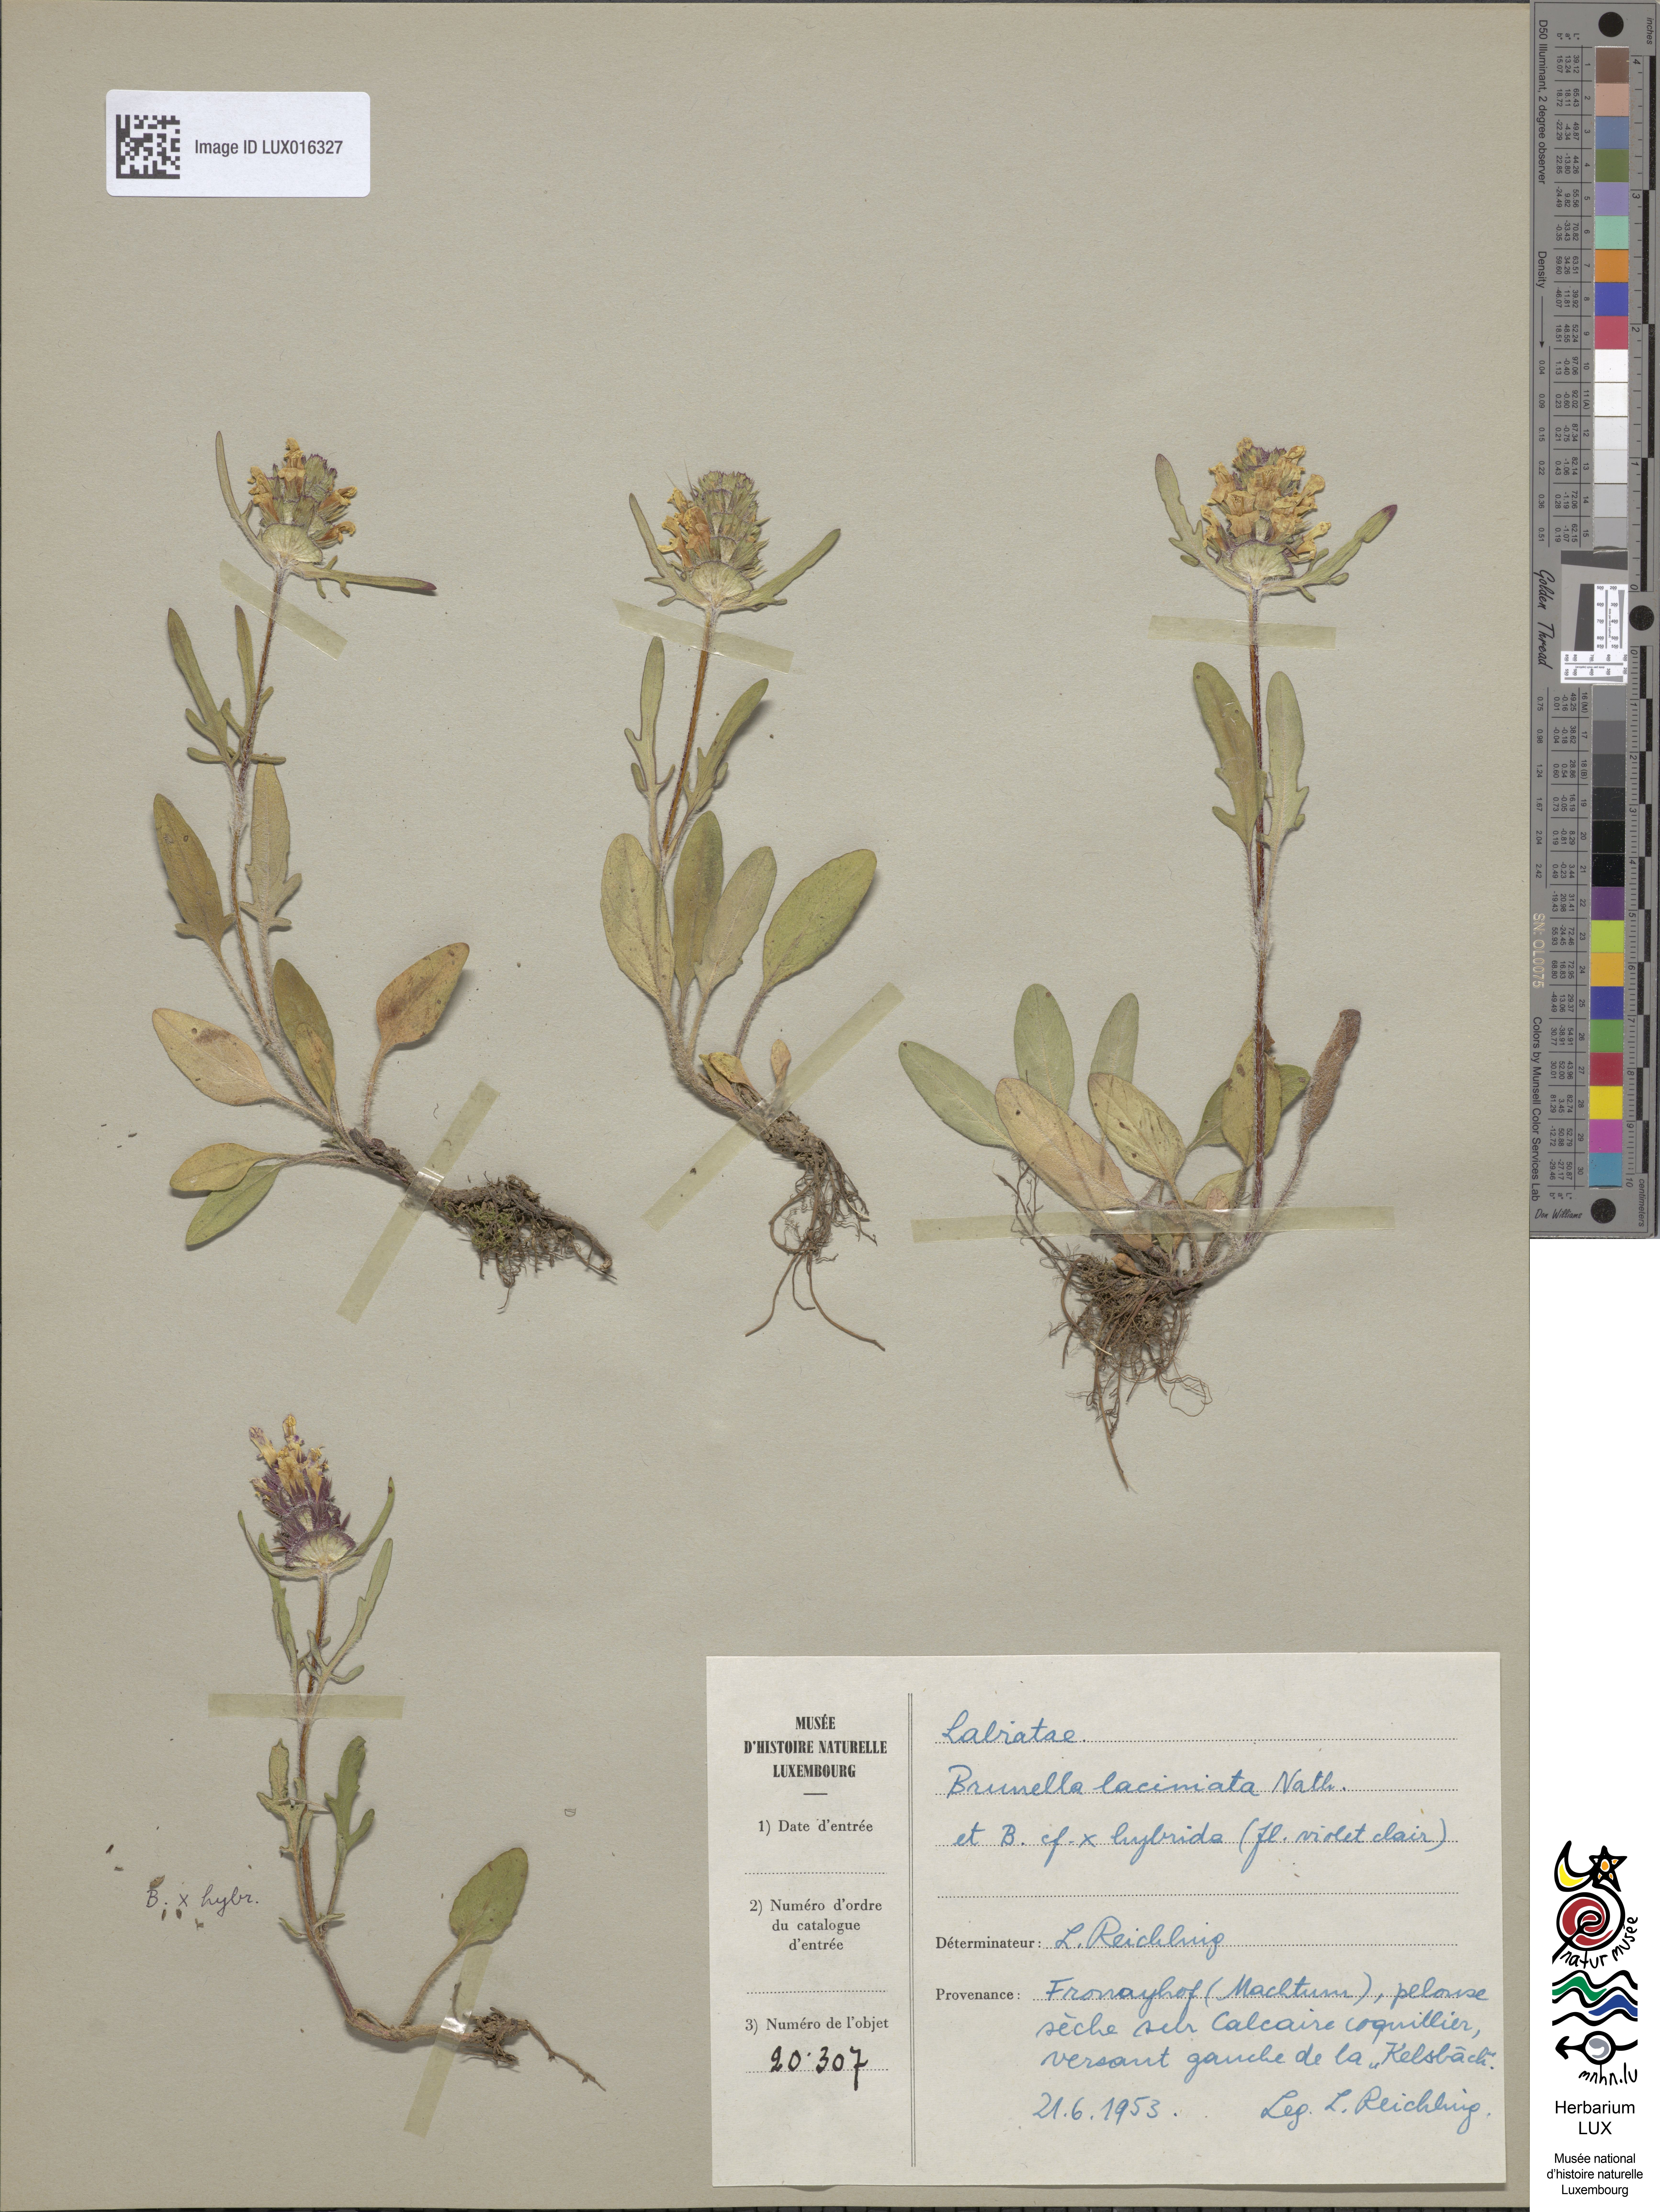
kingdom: Plantae
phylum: Tracheophyta
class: Magnoliopsida
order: Lamiales
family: Lamiaceae
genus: Prunella
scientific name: Prunella laciniata
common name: Cut-leaved selfheal
